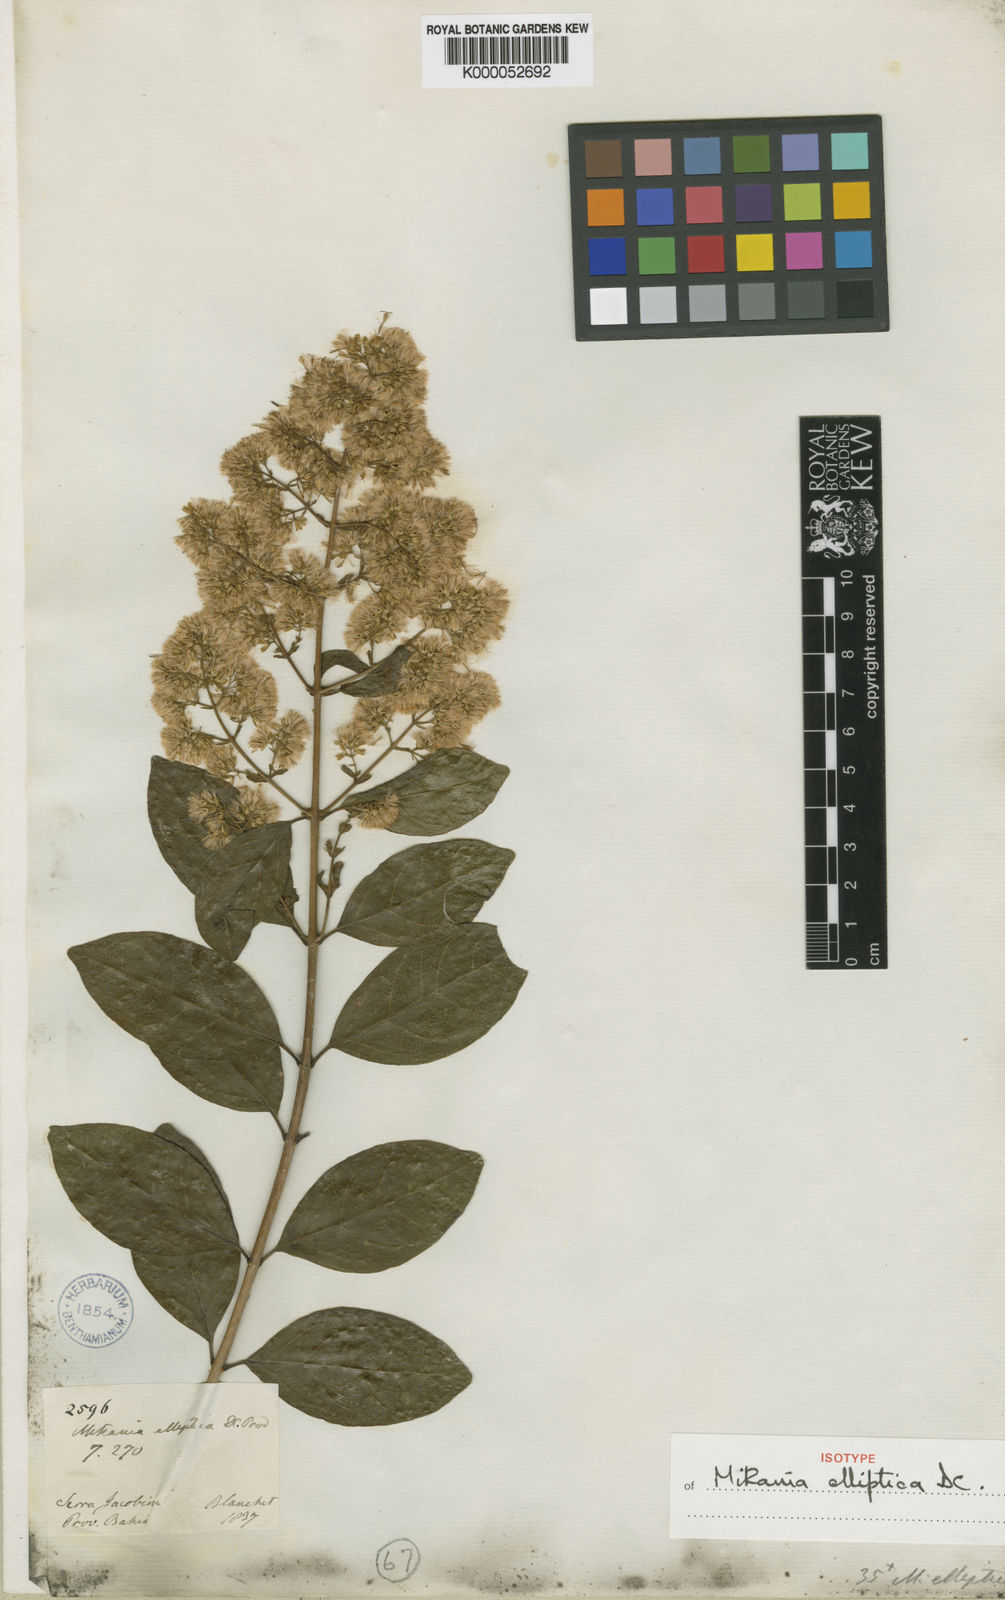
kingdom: Plantae
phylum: Tracheophyta
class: Magnoliopsida
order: Asterales
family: Asteraceae
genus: Mikania
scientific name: Mikania elliptica
